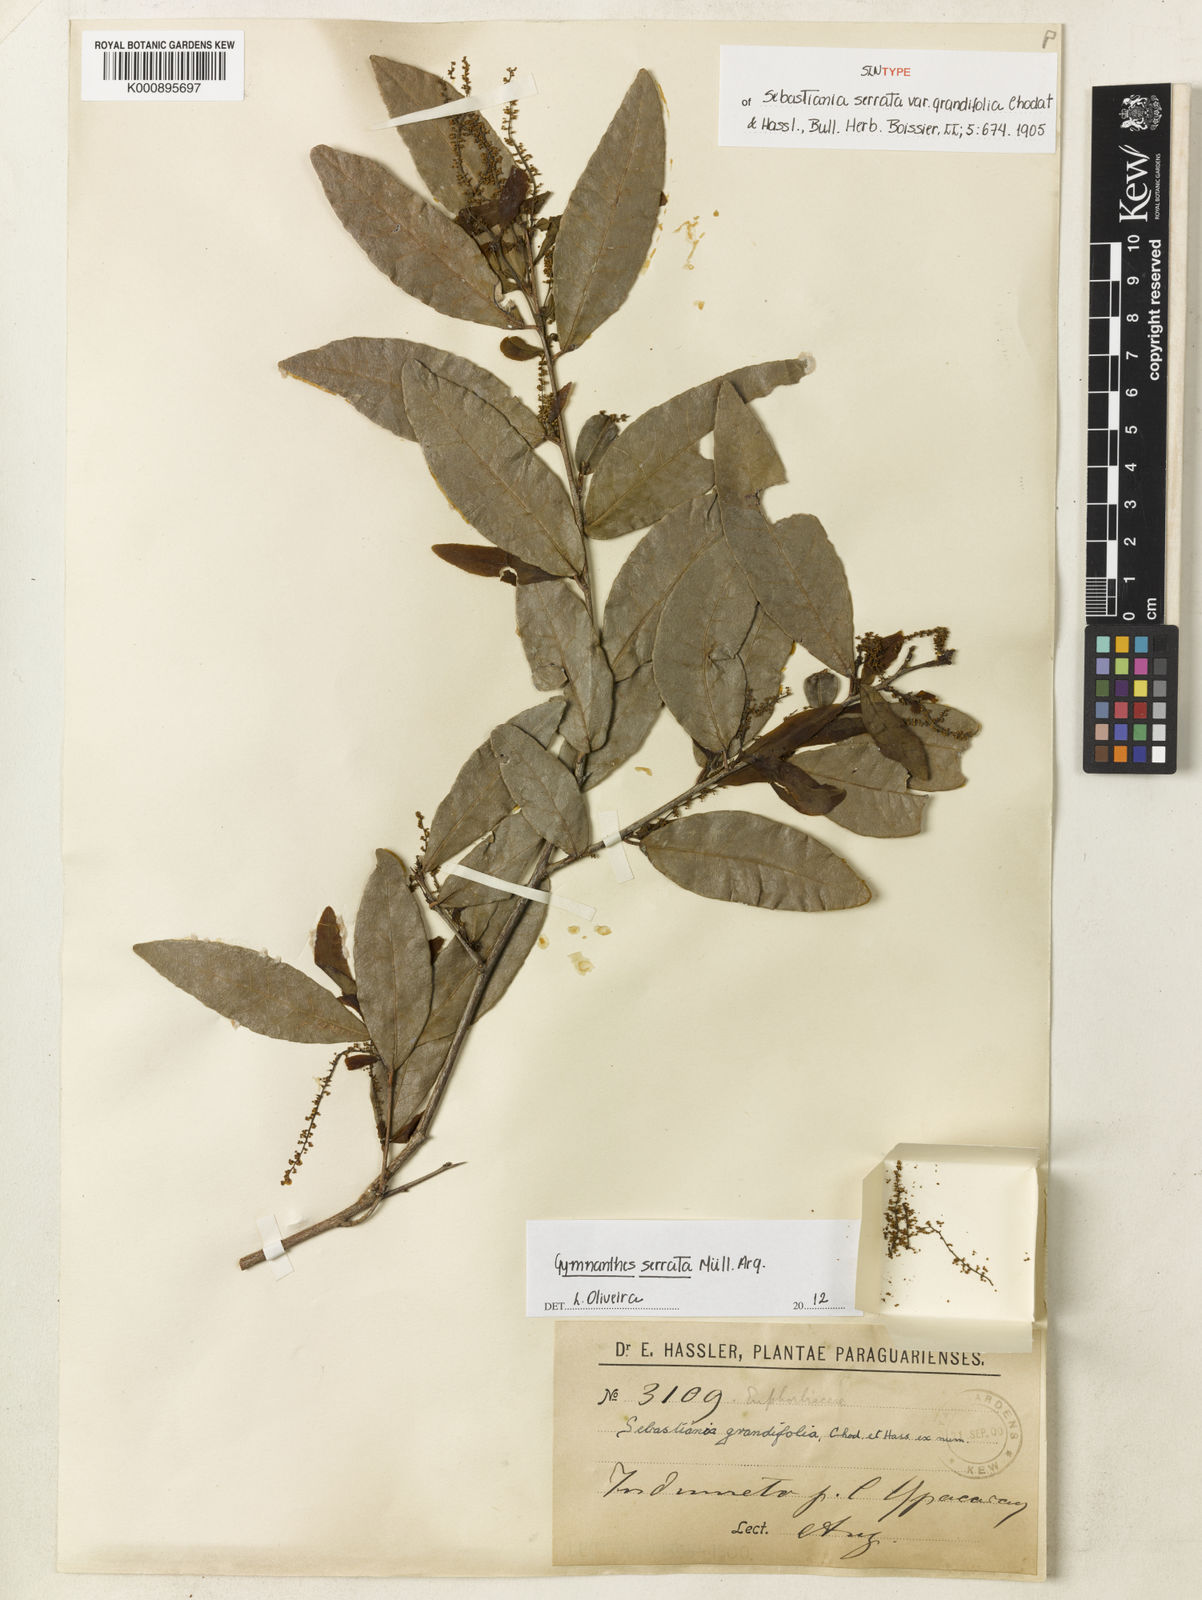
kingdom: Plantae
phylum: Tracheophyta
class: Magnoliopsida
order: Malpighiales
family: Euphorbiaceae
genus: Gymnanthes
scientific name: Gymnanthes
